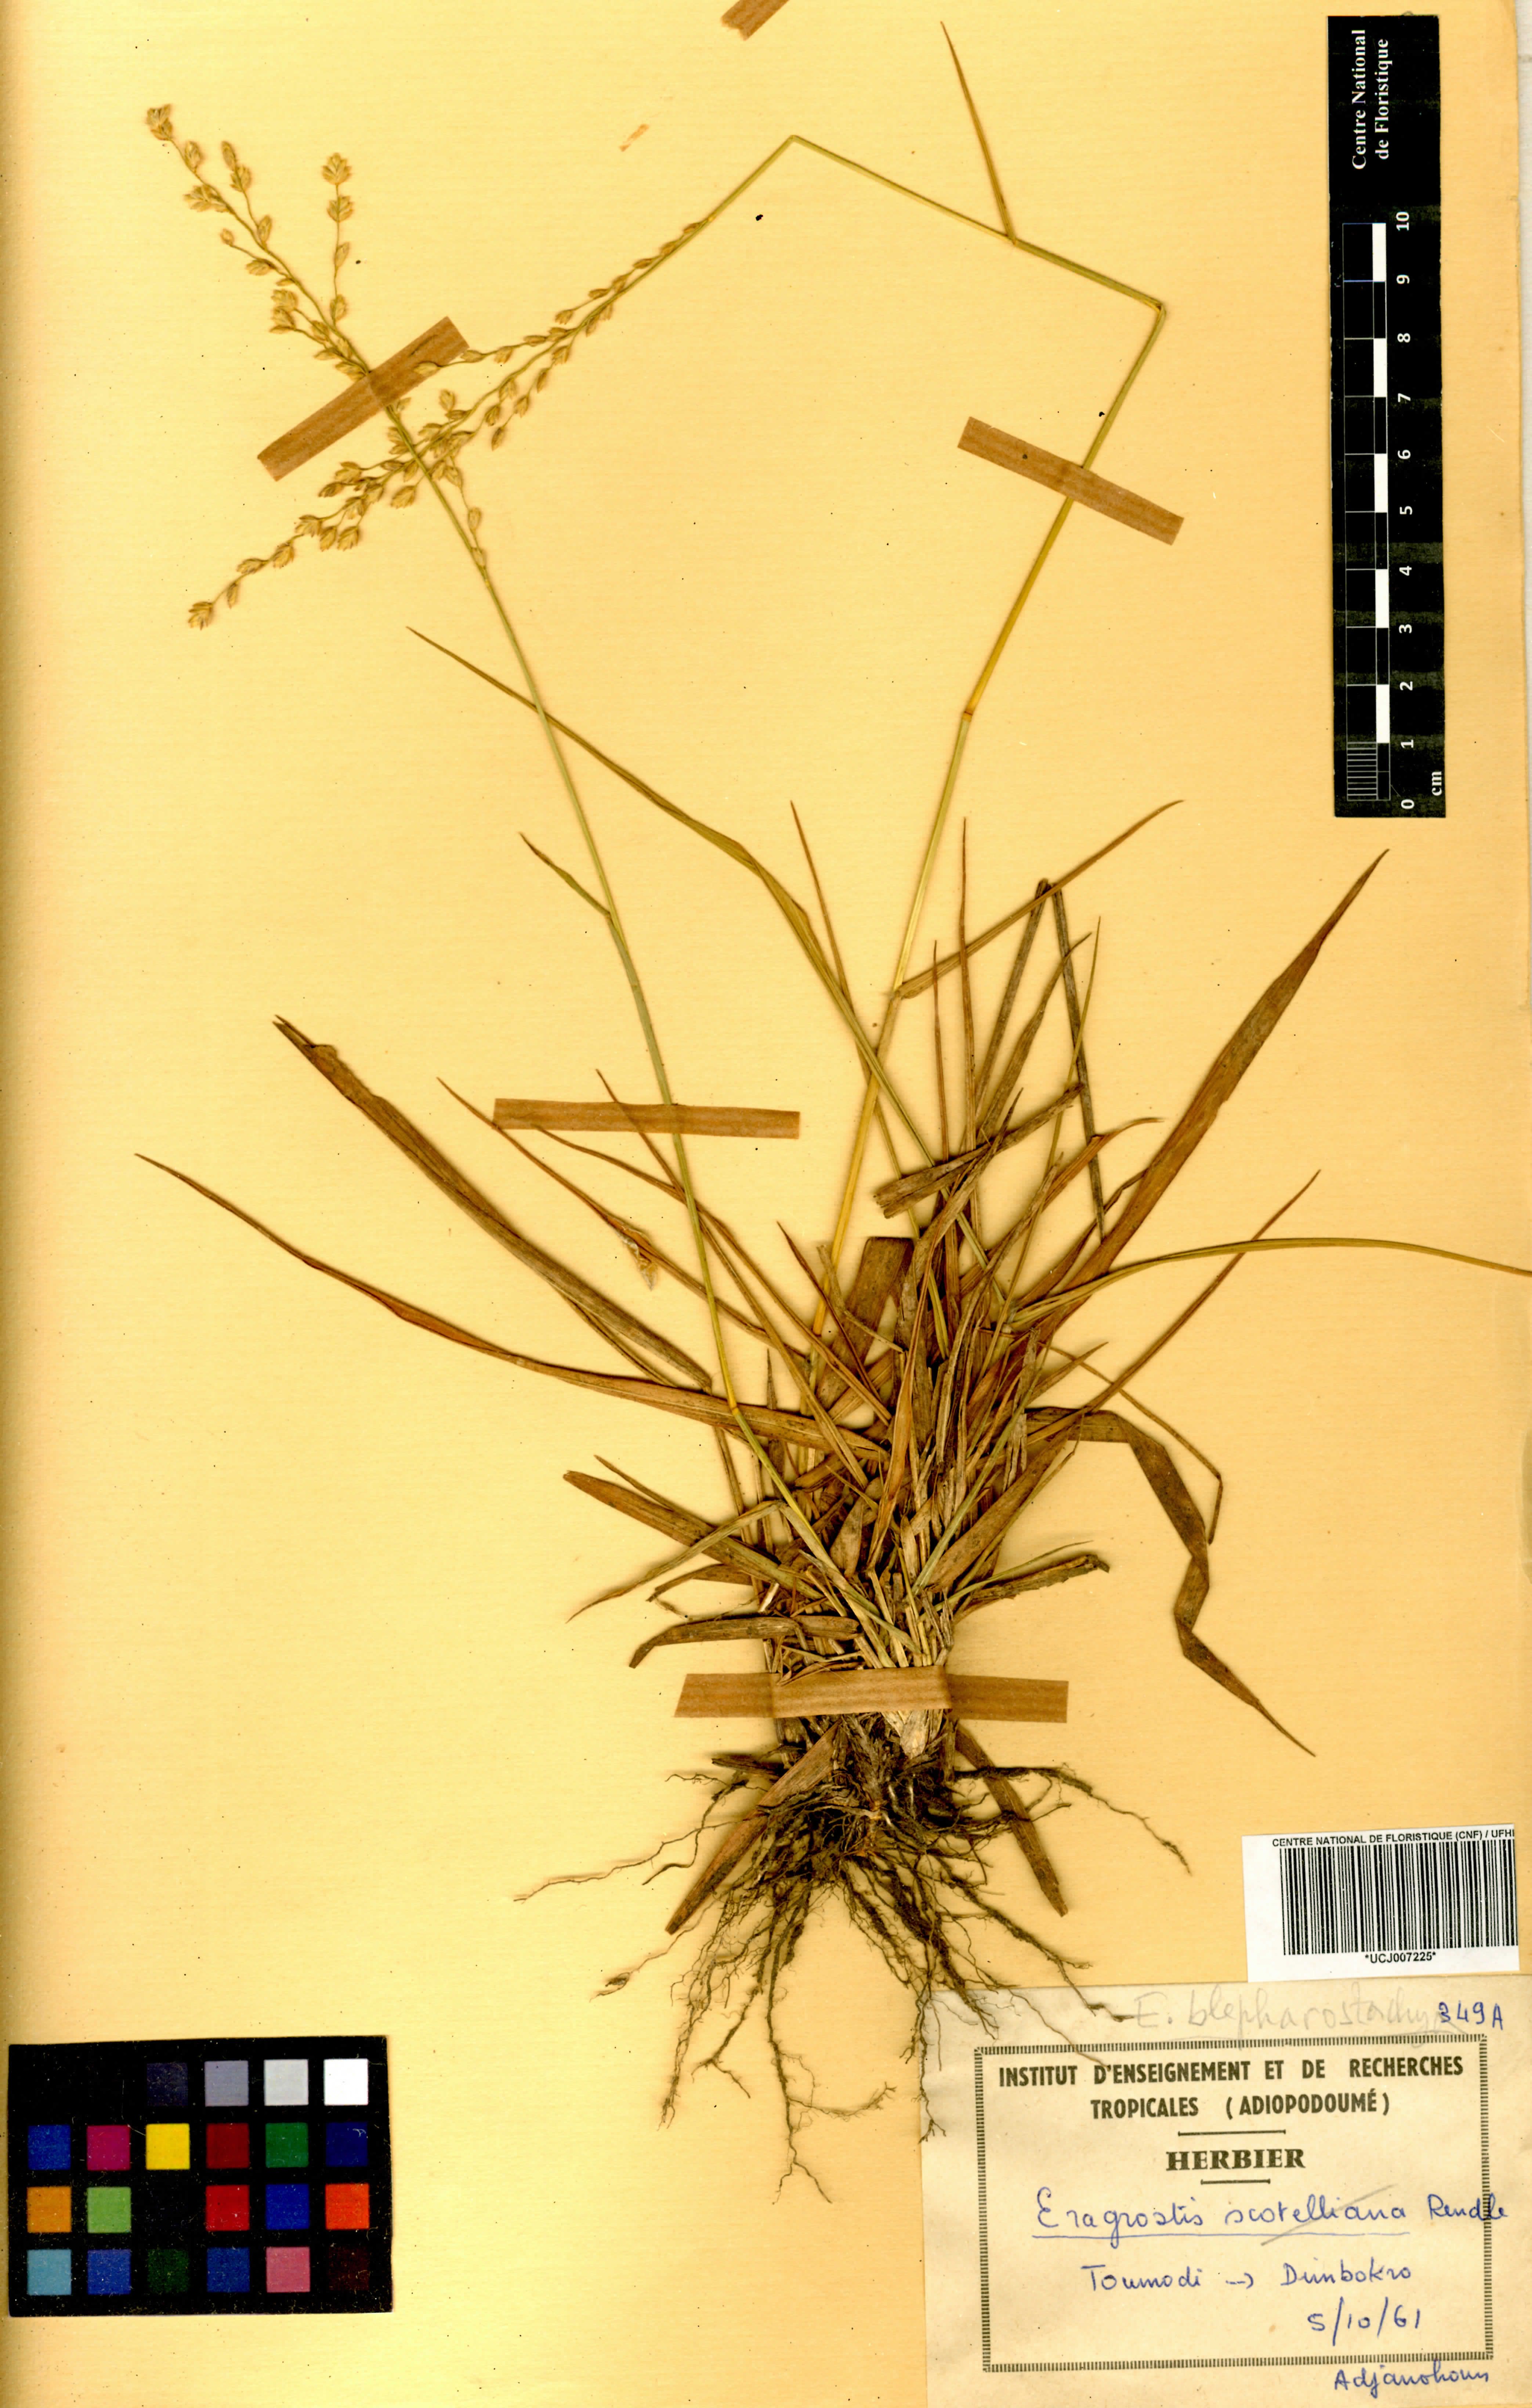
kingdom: Plantae
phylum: Tracheophyta
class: Liliopsida
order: Poales
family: Poaceae
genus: Eragrostis
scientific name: Eragrostis blepharostachya
